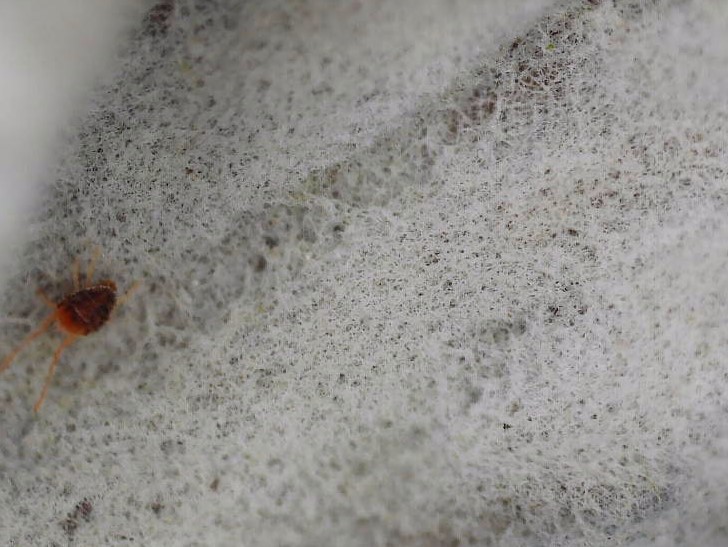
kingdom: Fungi
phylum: Ascomycota
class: Lecanoromycetes
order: Peltigerales
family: Peltigeraceae
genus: Peltigera
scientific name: Peltigera membranacea
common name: tynd skjoldlav
